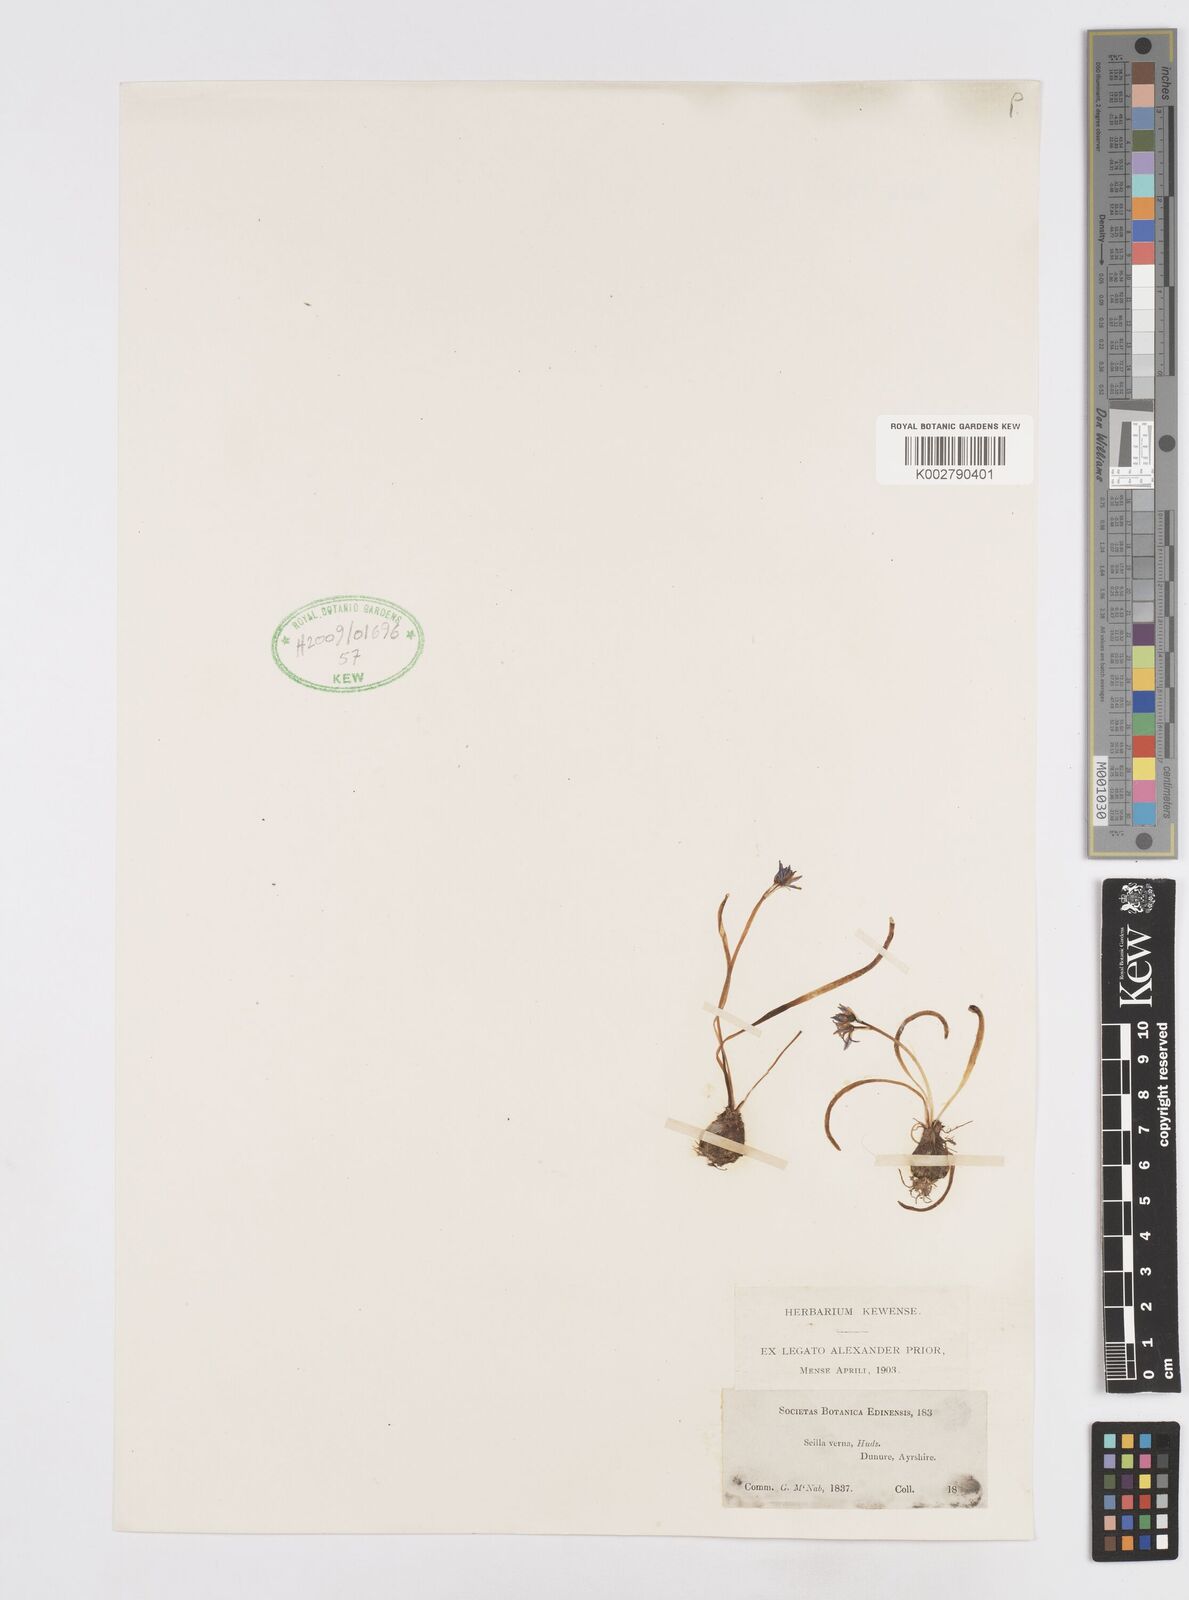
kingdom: Plantae
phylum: Tracheophyta
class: Liliopsida
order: Asparagales
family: Asparagaceae
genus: Scilla
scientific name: Scilla verna
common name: Spring squill
